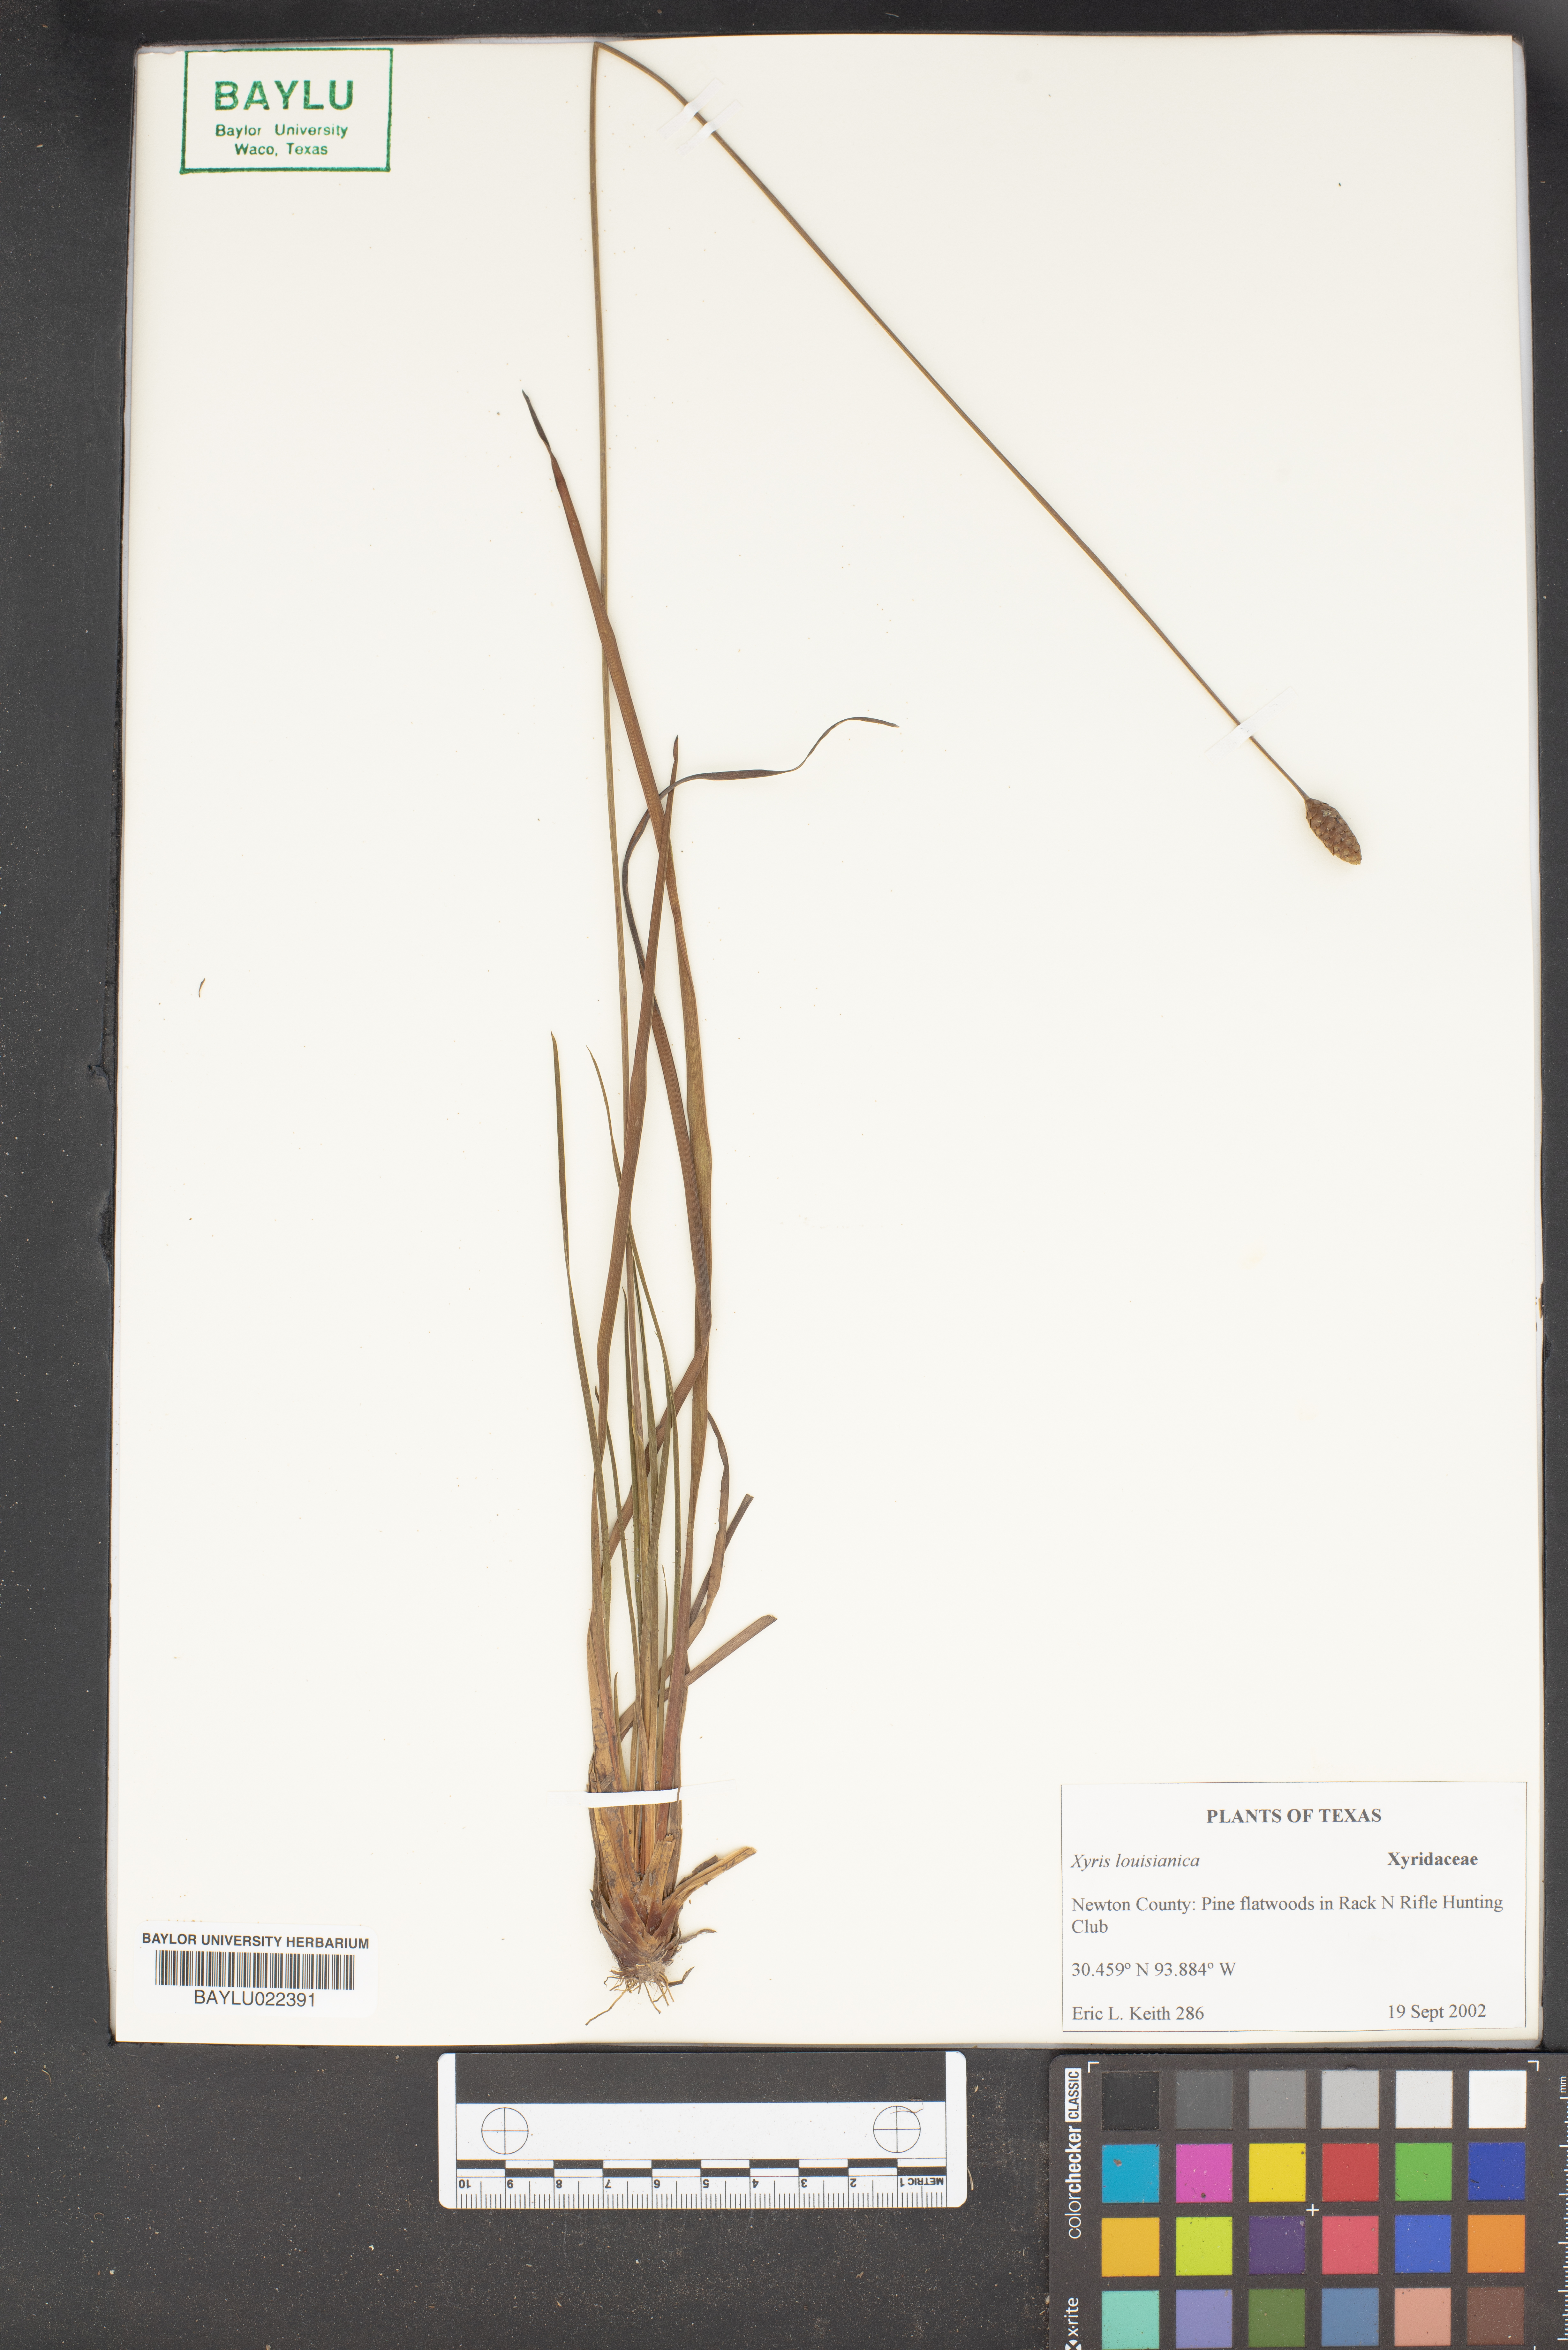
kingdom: Plantae
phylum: Tracheophyta
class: Liliopsida
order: Poales
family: Xyridaceae
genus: Xyris
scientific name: Xyris stricta
